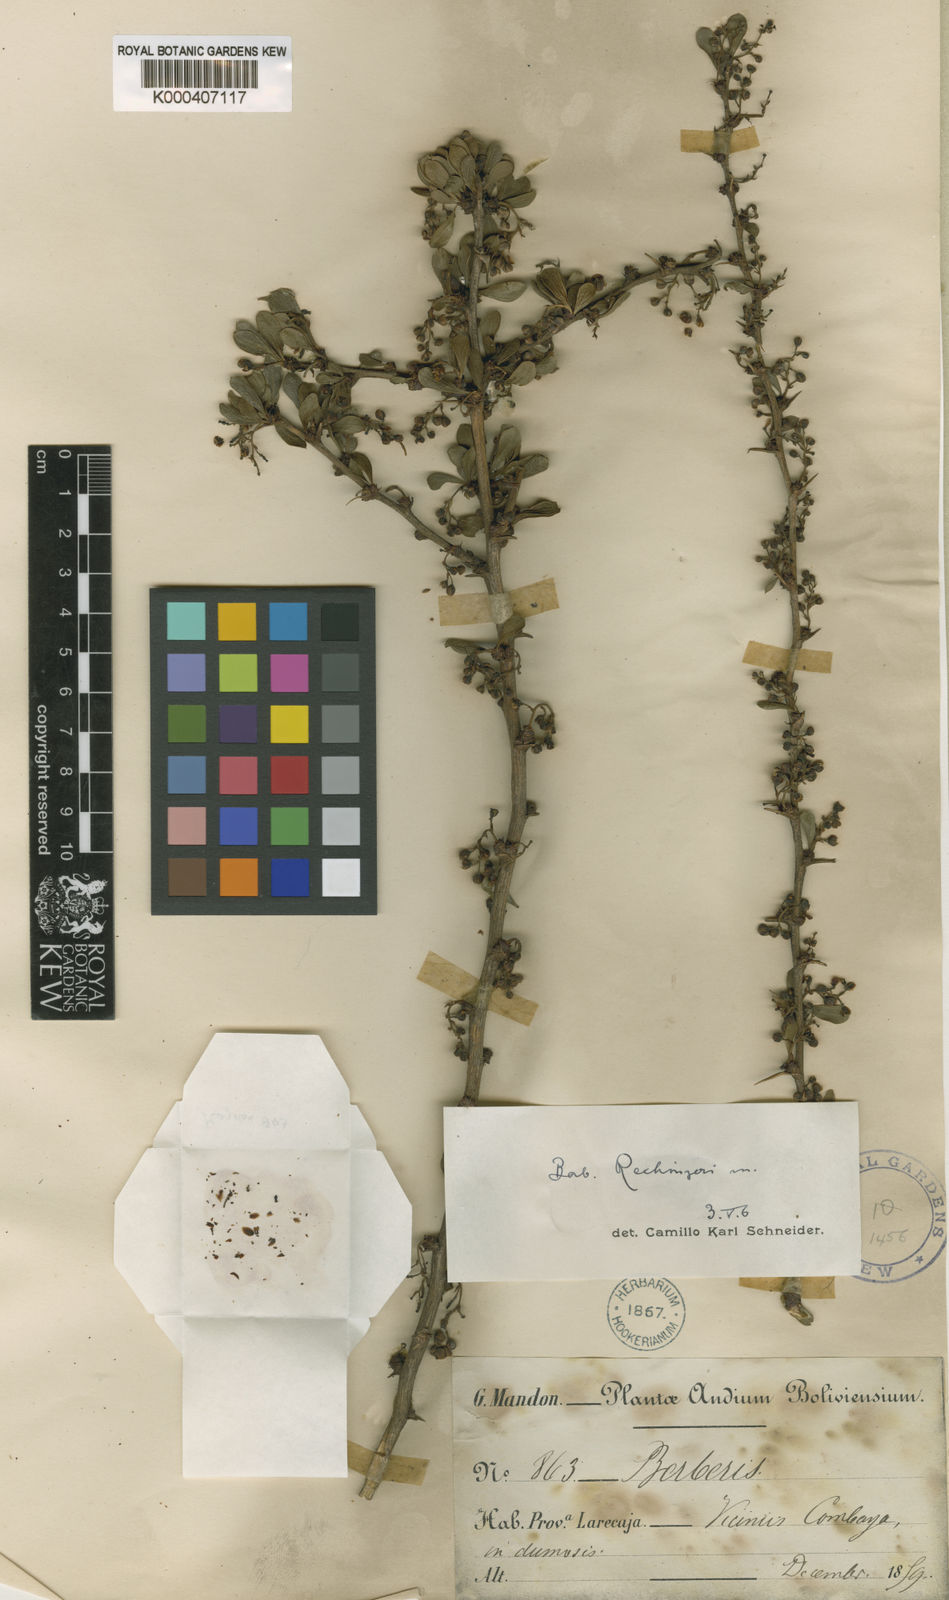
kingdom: Plantae
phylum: Tracheophyta
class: Magnoliopsida
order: Ranunculales
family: Berberidaceae
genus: Berberis
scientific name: Berberis rechingeri
